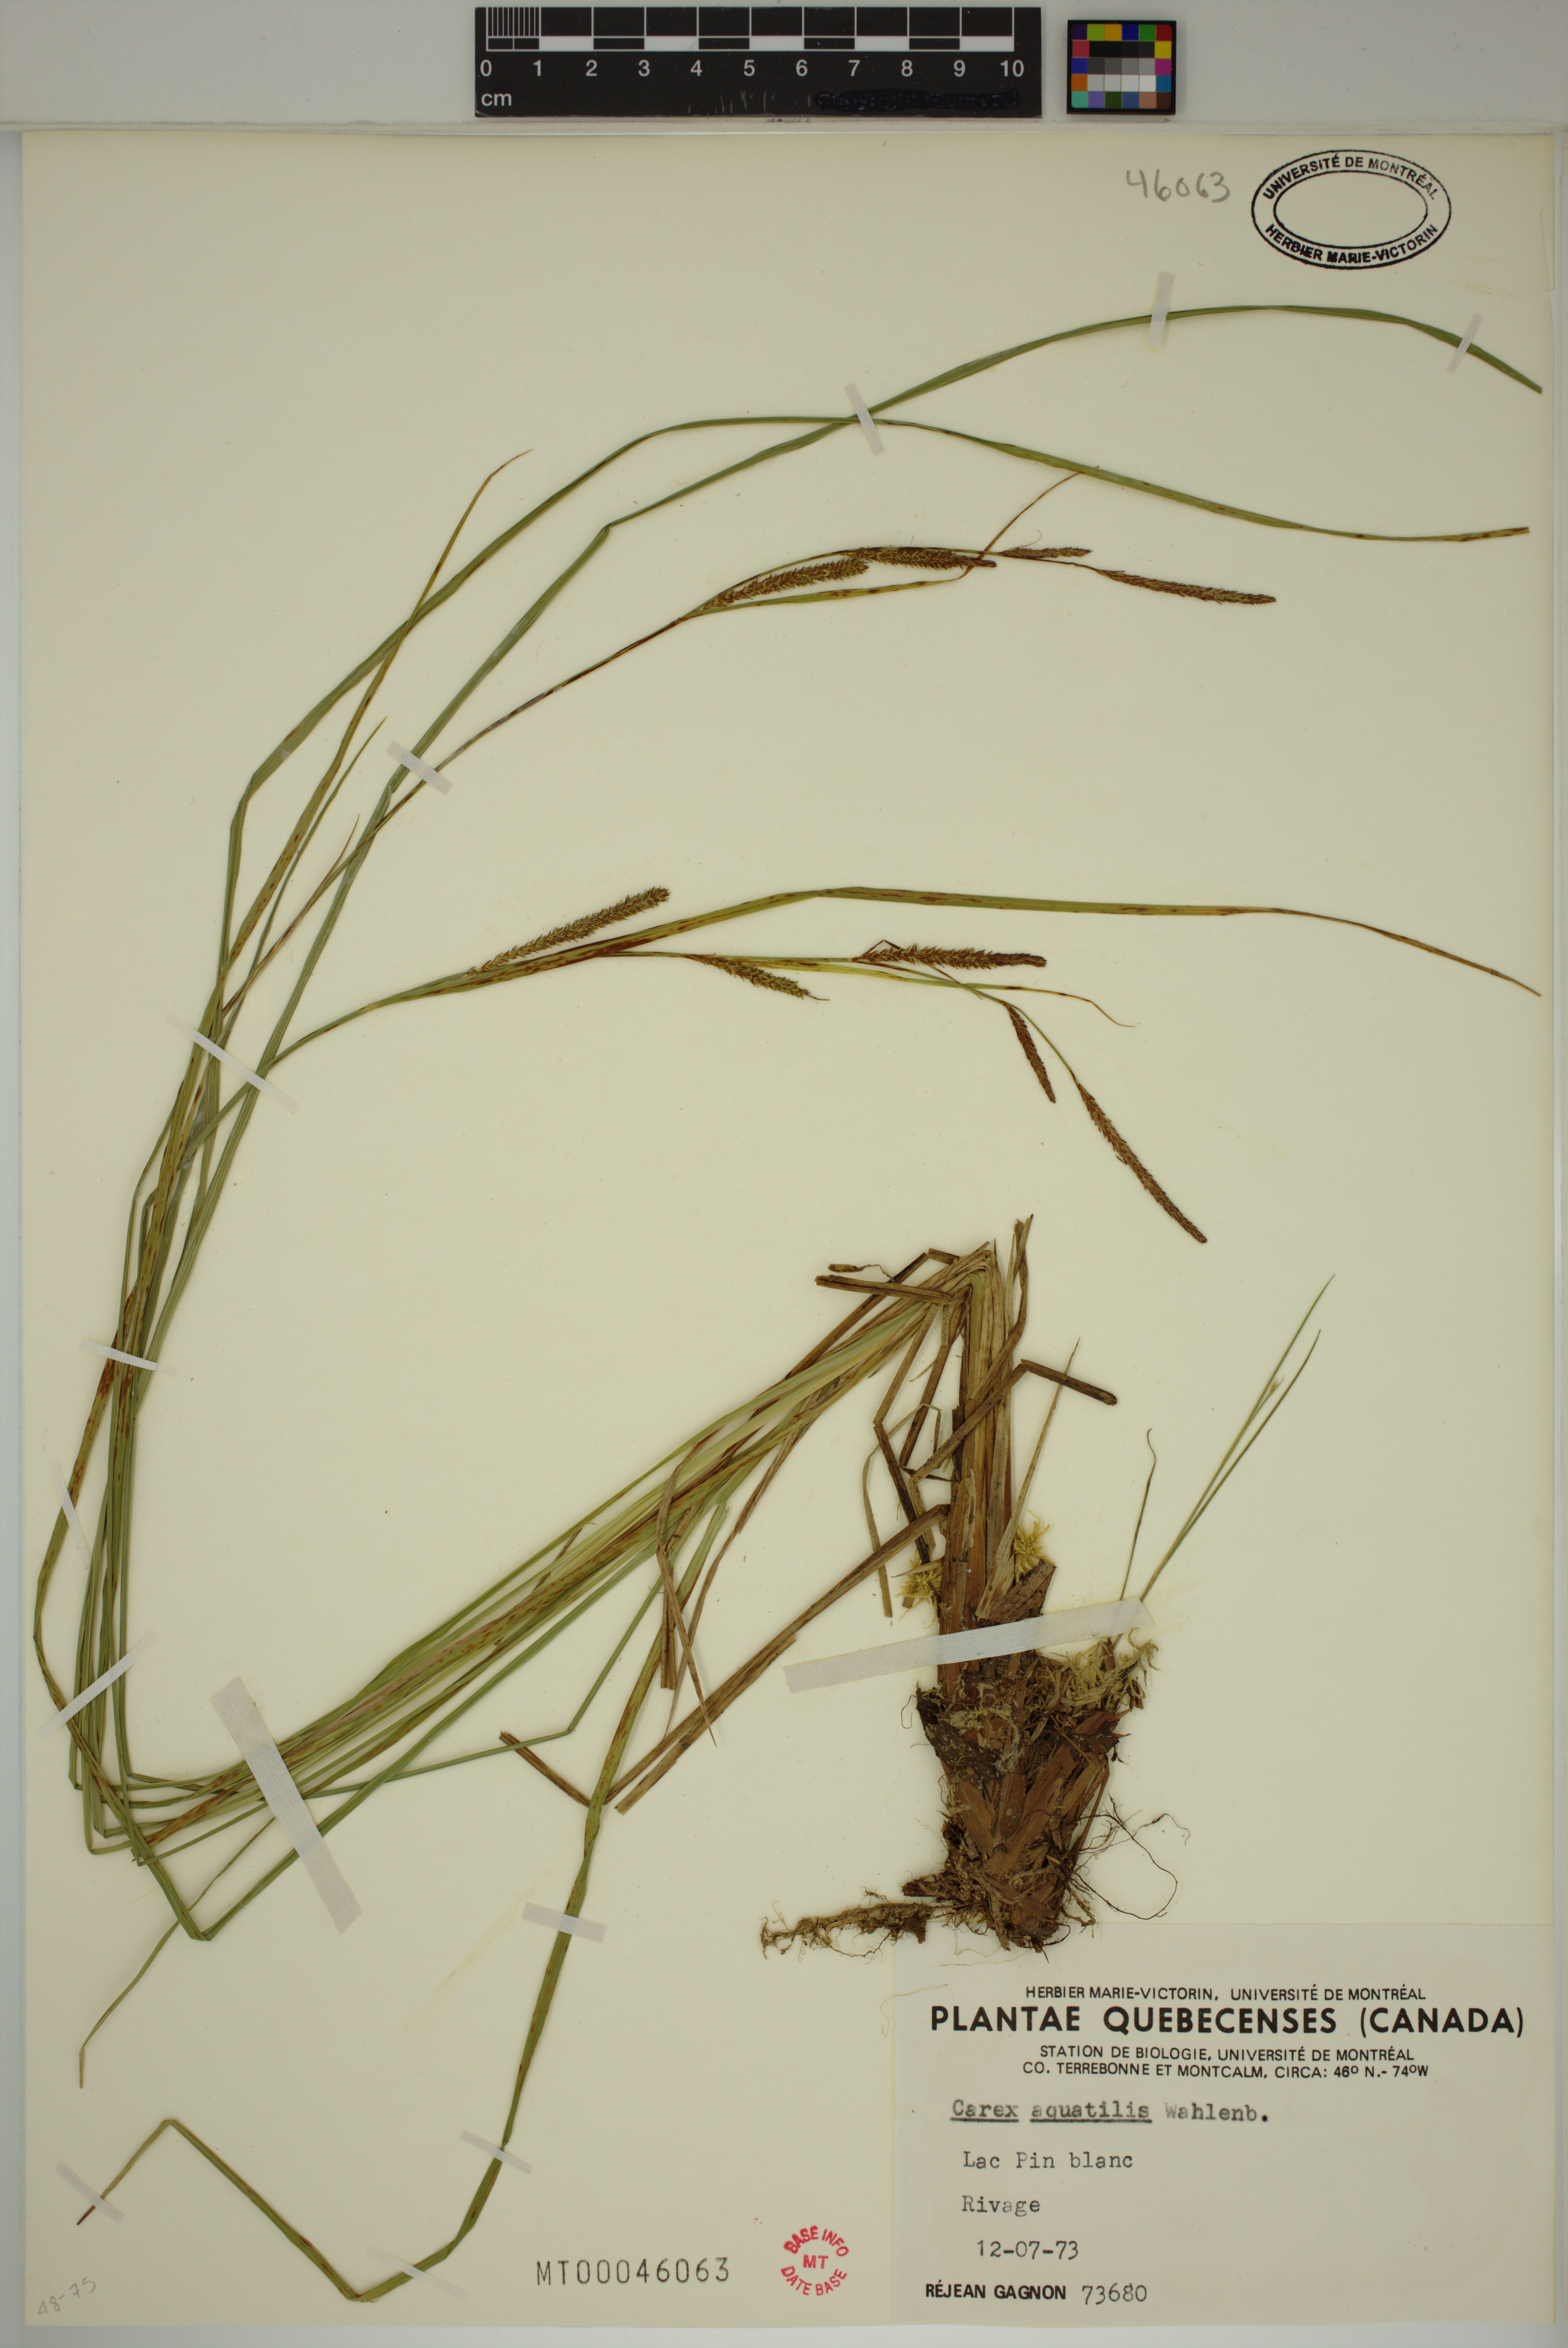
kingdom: Plantae
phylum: Tracheophyta
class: Liliopsida
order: Poales
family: Cyperaceae
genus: Carex
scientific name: Carex aquatilis
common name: Water sedge
